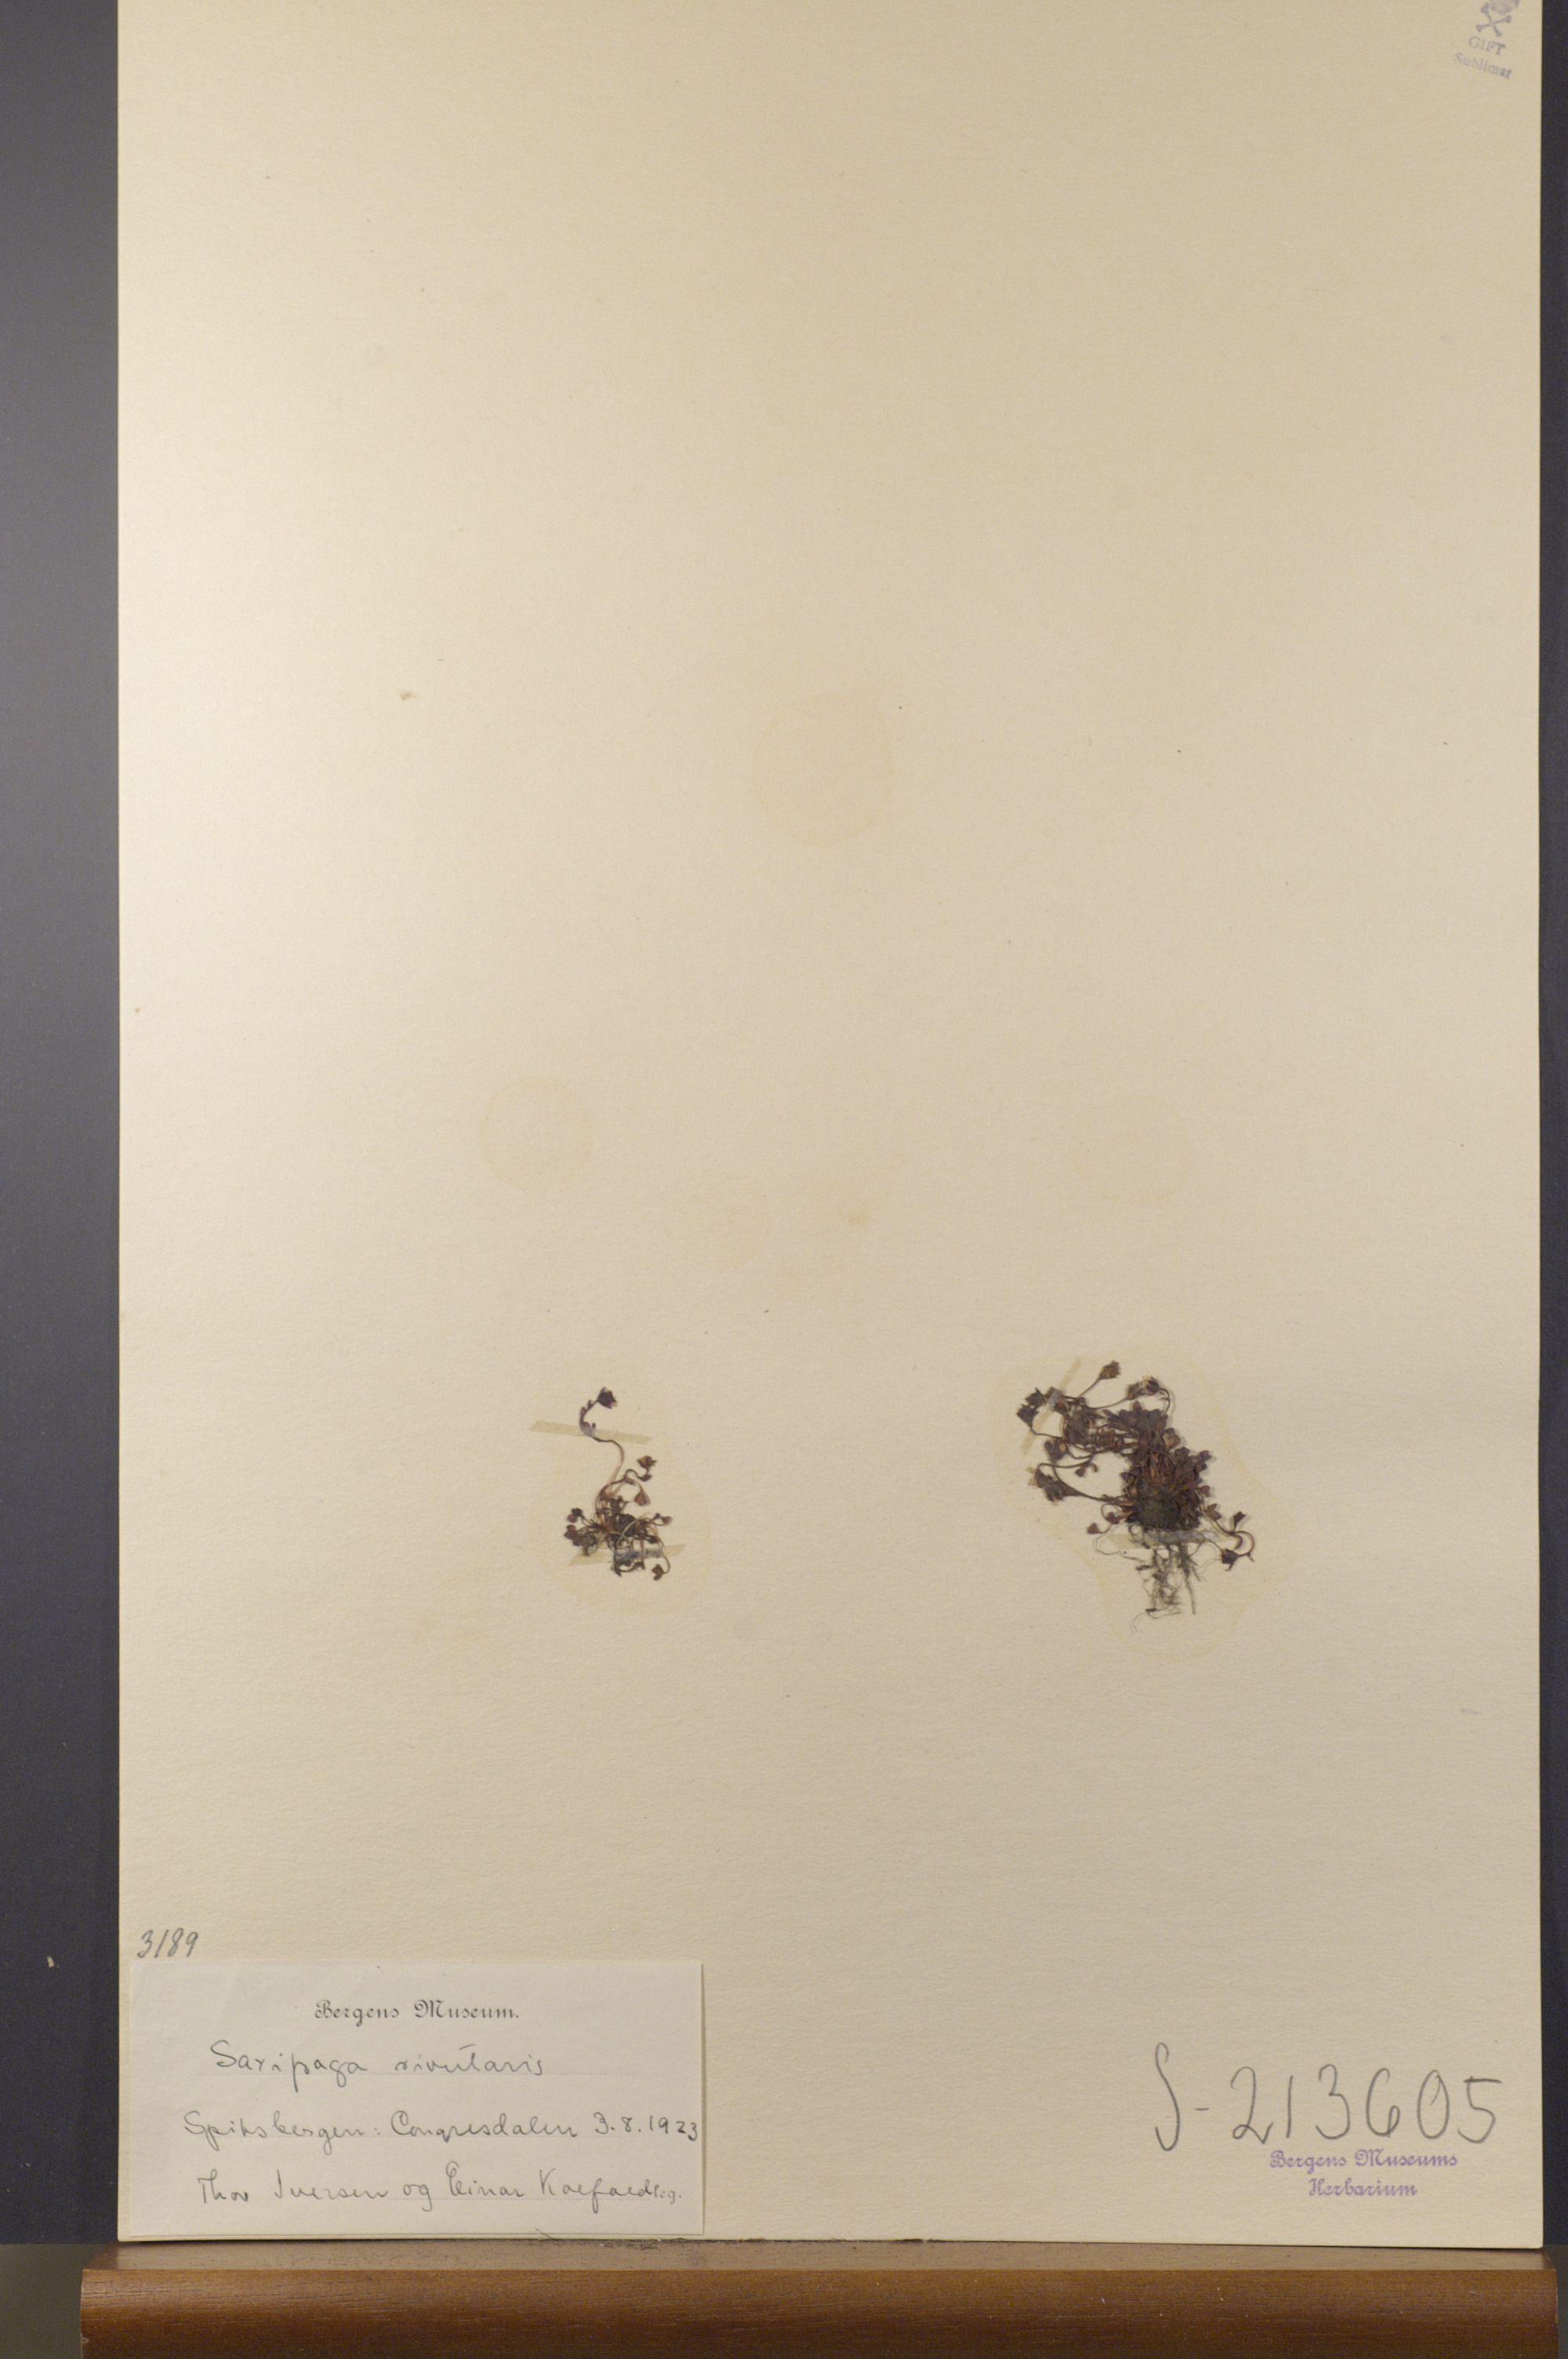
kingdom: Plantae
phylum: Tracheophyta
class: Magnoliopsida
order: Saxifragales
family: Saxifragaceae
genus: Saxifraga
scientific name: Saxifraga rivularis
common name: Highland saxifrage
